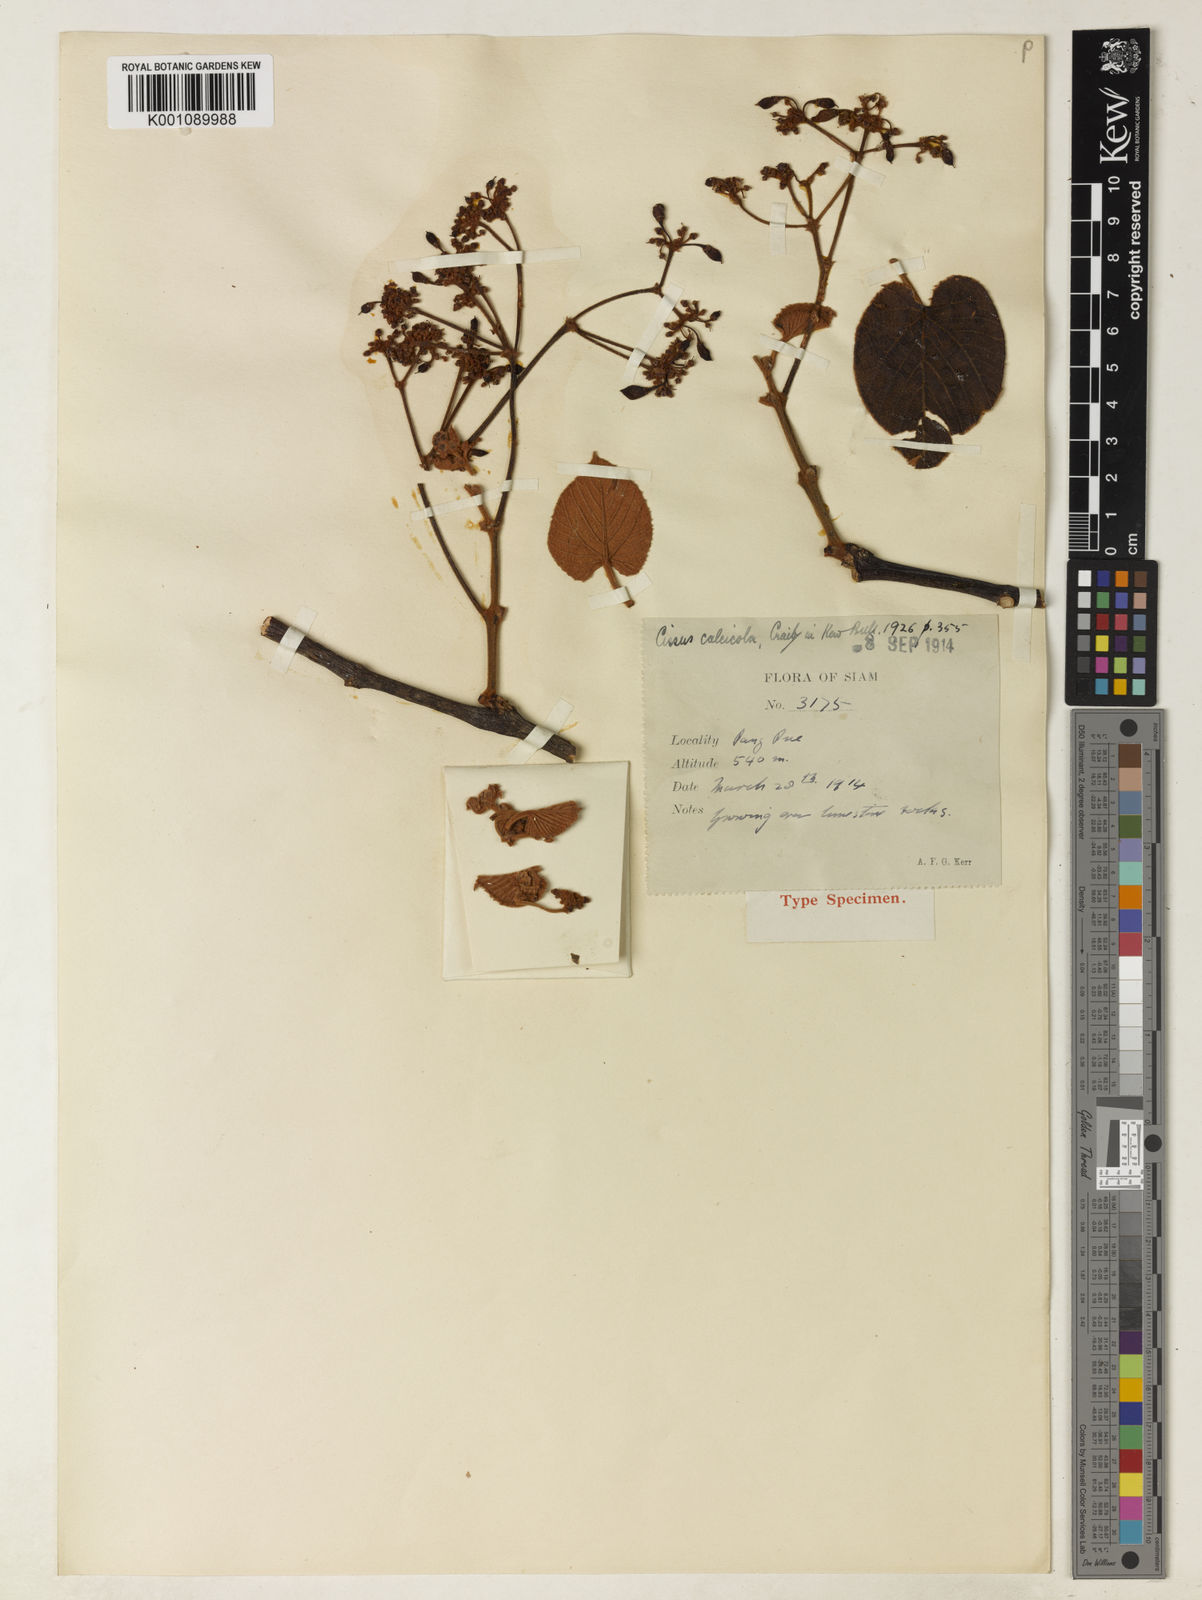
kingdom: Plantae
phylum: Tracheophyta
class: Magnoliopsida
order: Vitales
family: Vitaceae
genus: Cissus
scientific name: Cissus calcicola
